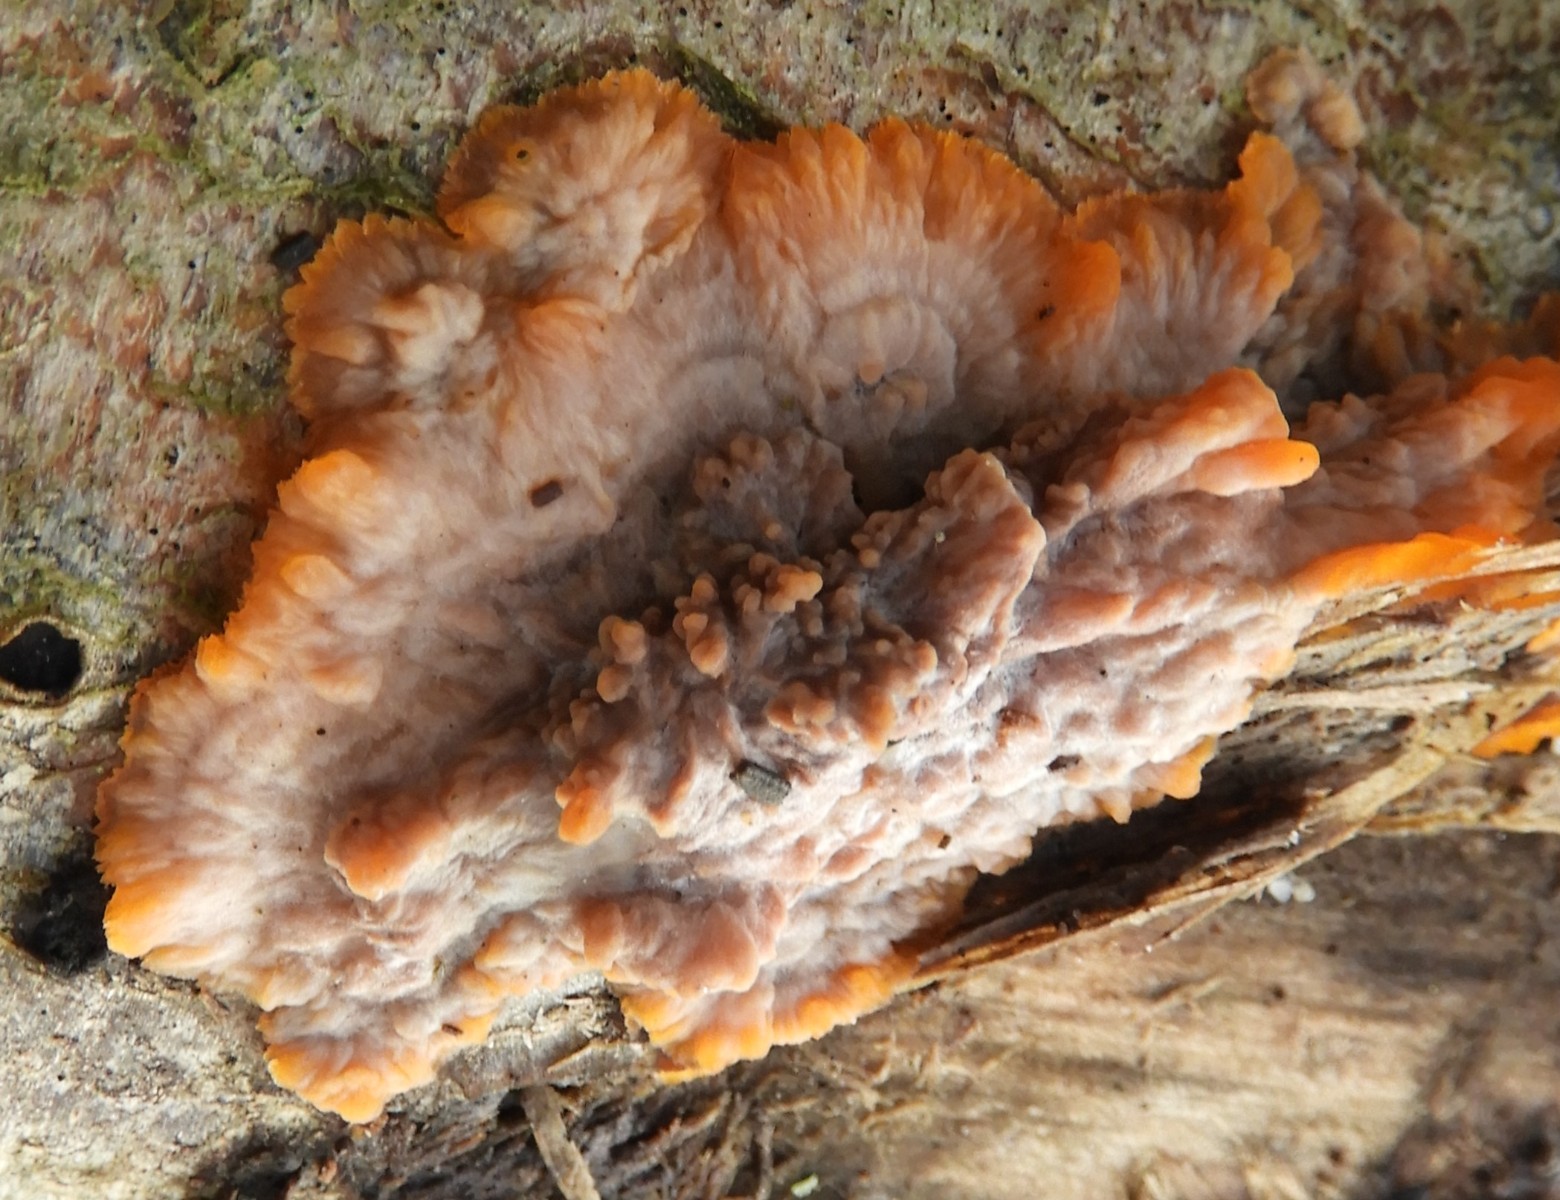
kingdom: Fungi
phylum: Basidiomycota
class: Agaricomycetes
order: Polyporales
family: Meruliaceae
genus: Phlebia
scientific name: Phlebia radiata
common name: stråle-åresvamp
